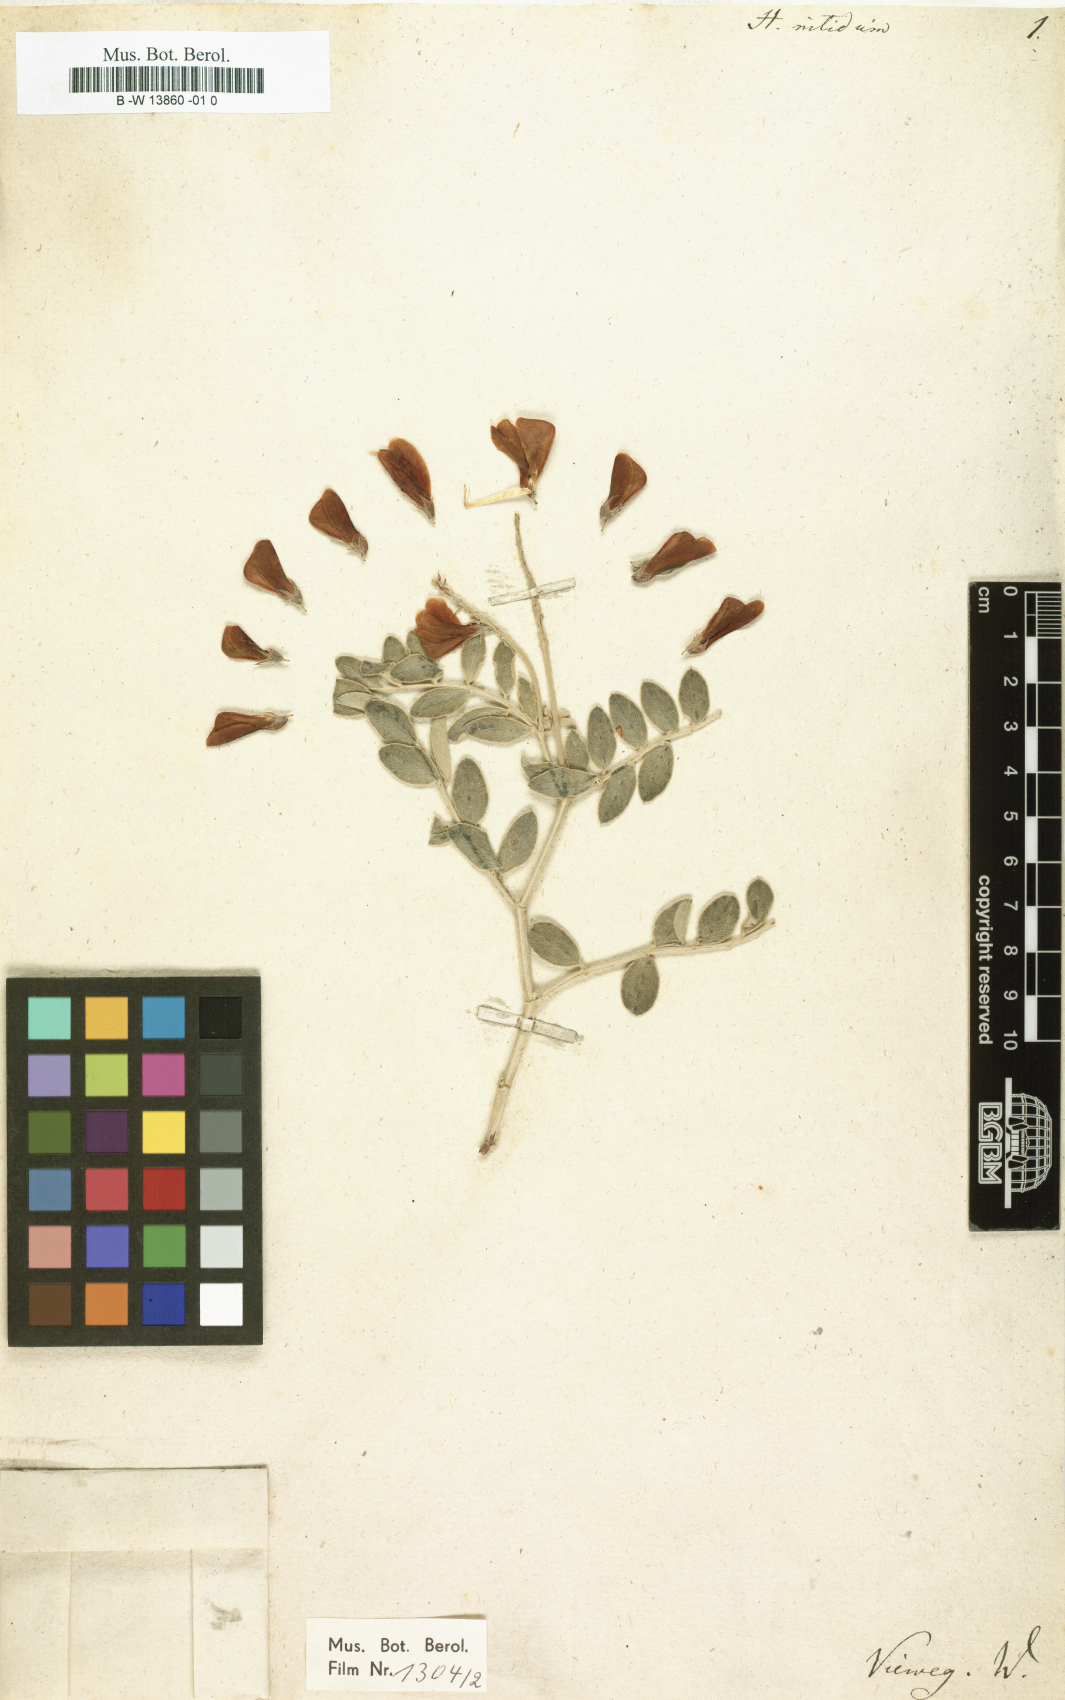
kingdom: Plantae
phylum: Tracheophyta
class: Magnoliopsida
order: Fabales
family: Fabaceae
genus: Hedysarum
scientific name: Hedysarum nitidum
